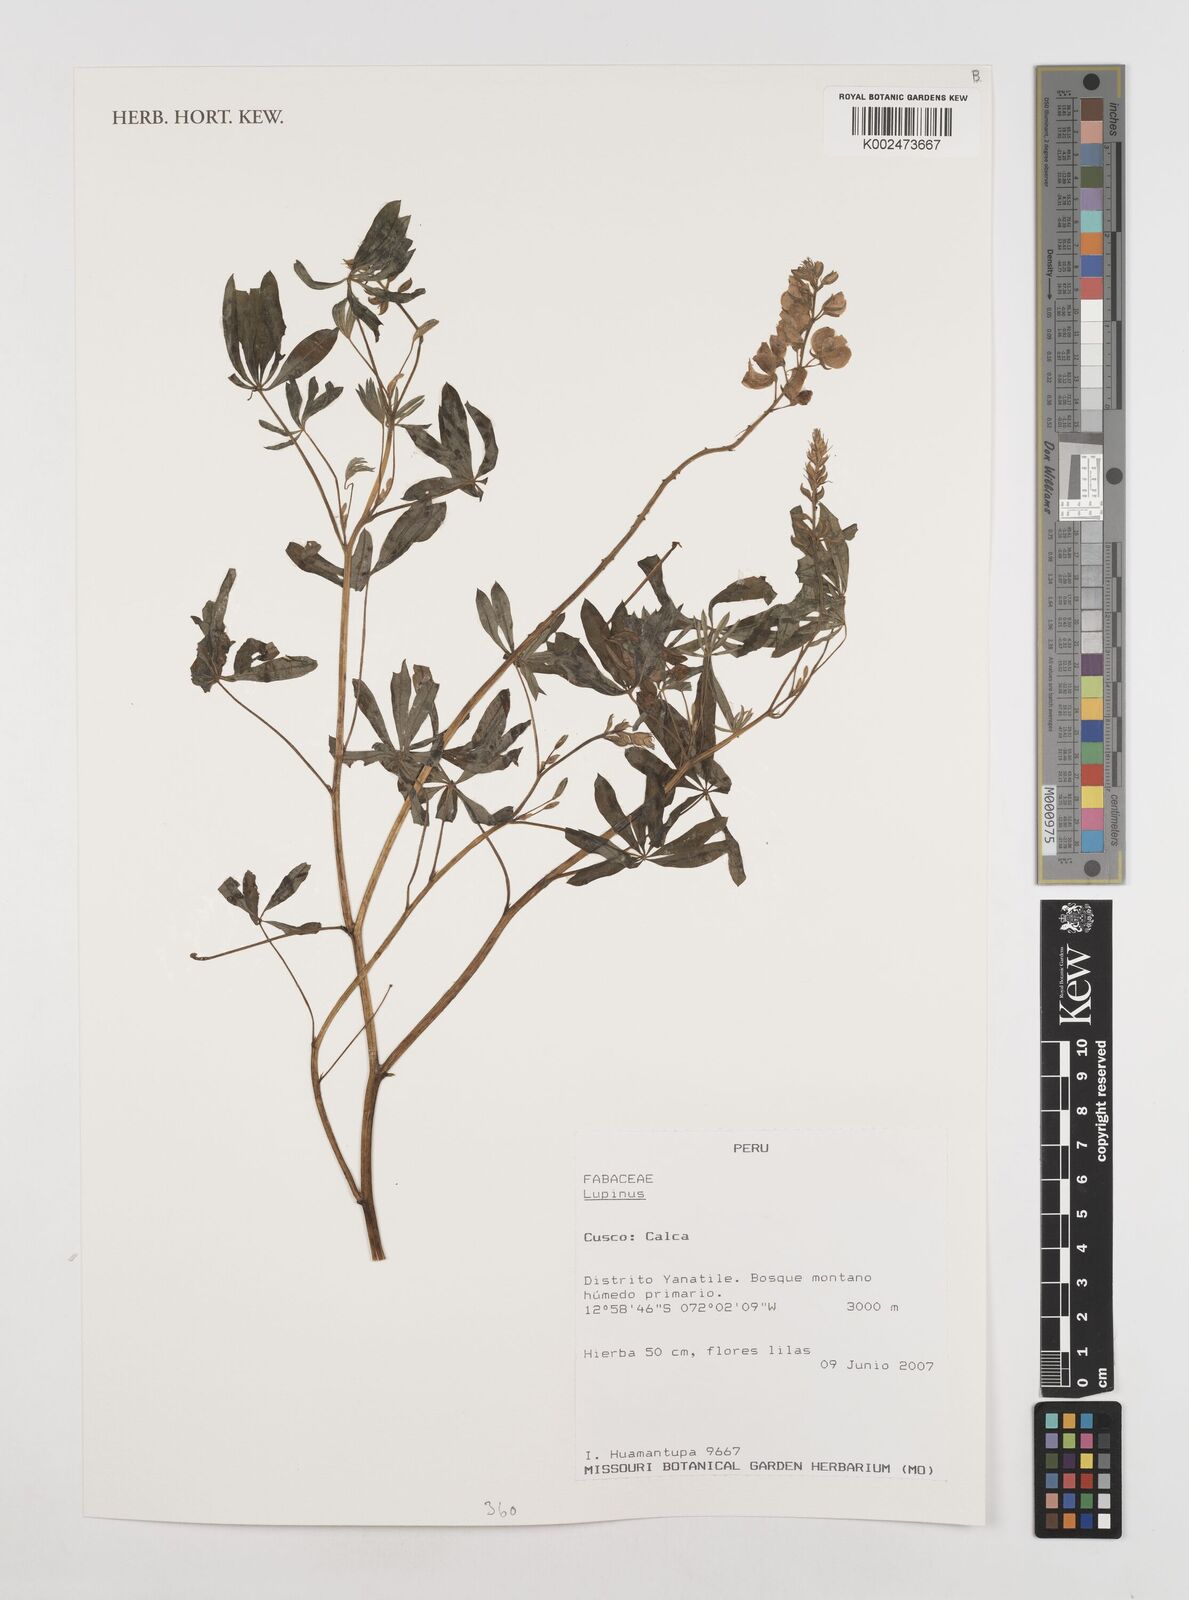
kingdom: Plantae
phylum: Tracheophyta
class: Magnoliopsida
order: Fabales
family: Fabaceae
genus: Lupinus
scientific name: Lupinus
